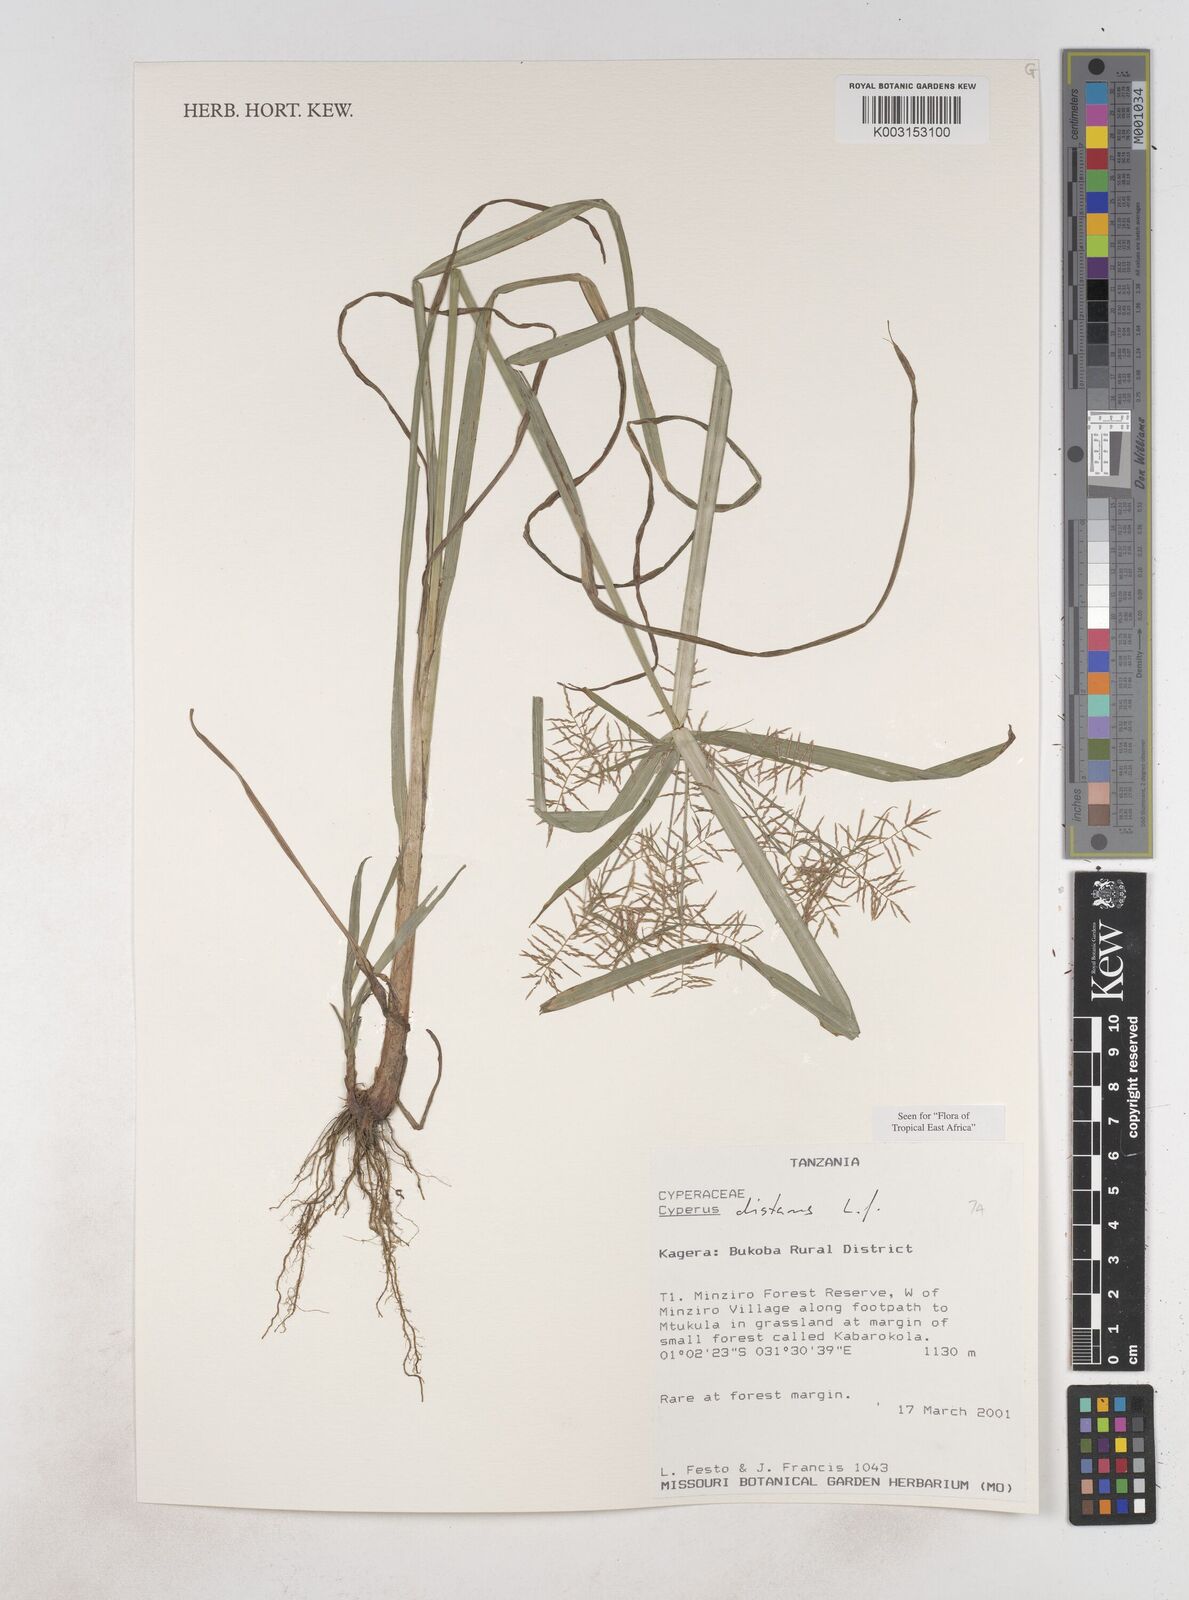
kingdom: Plantae
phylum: Tracheophyta
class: Liliopsida
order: Poales
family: Cyperaceae
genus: Cyperus
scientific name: Cyperus distans
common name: Slender cyperus
